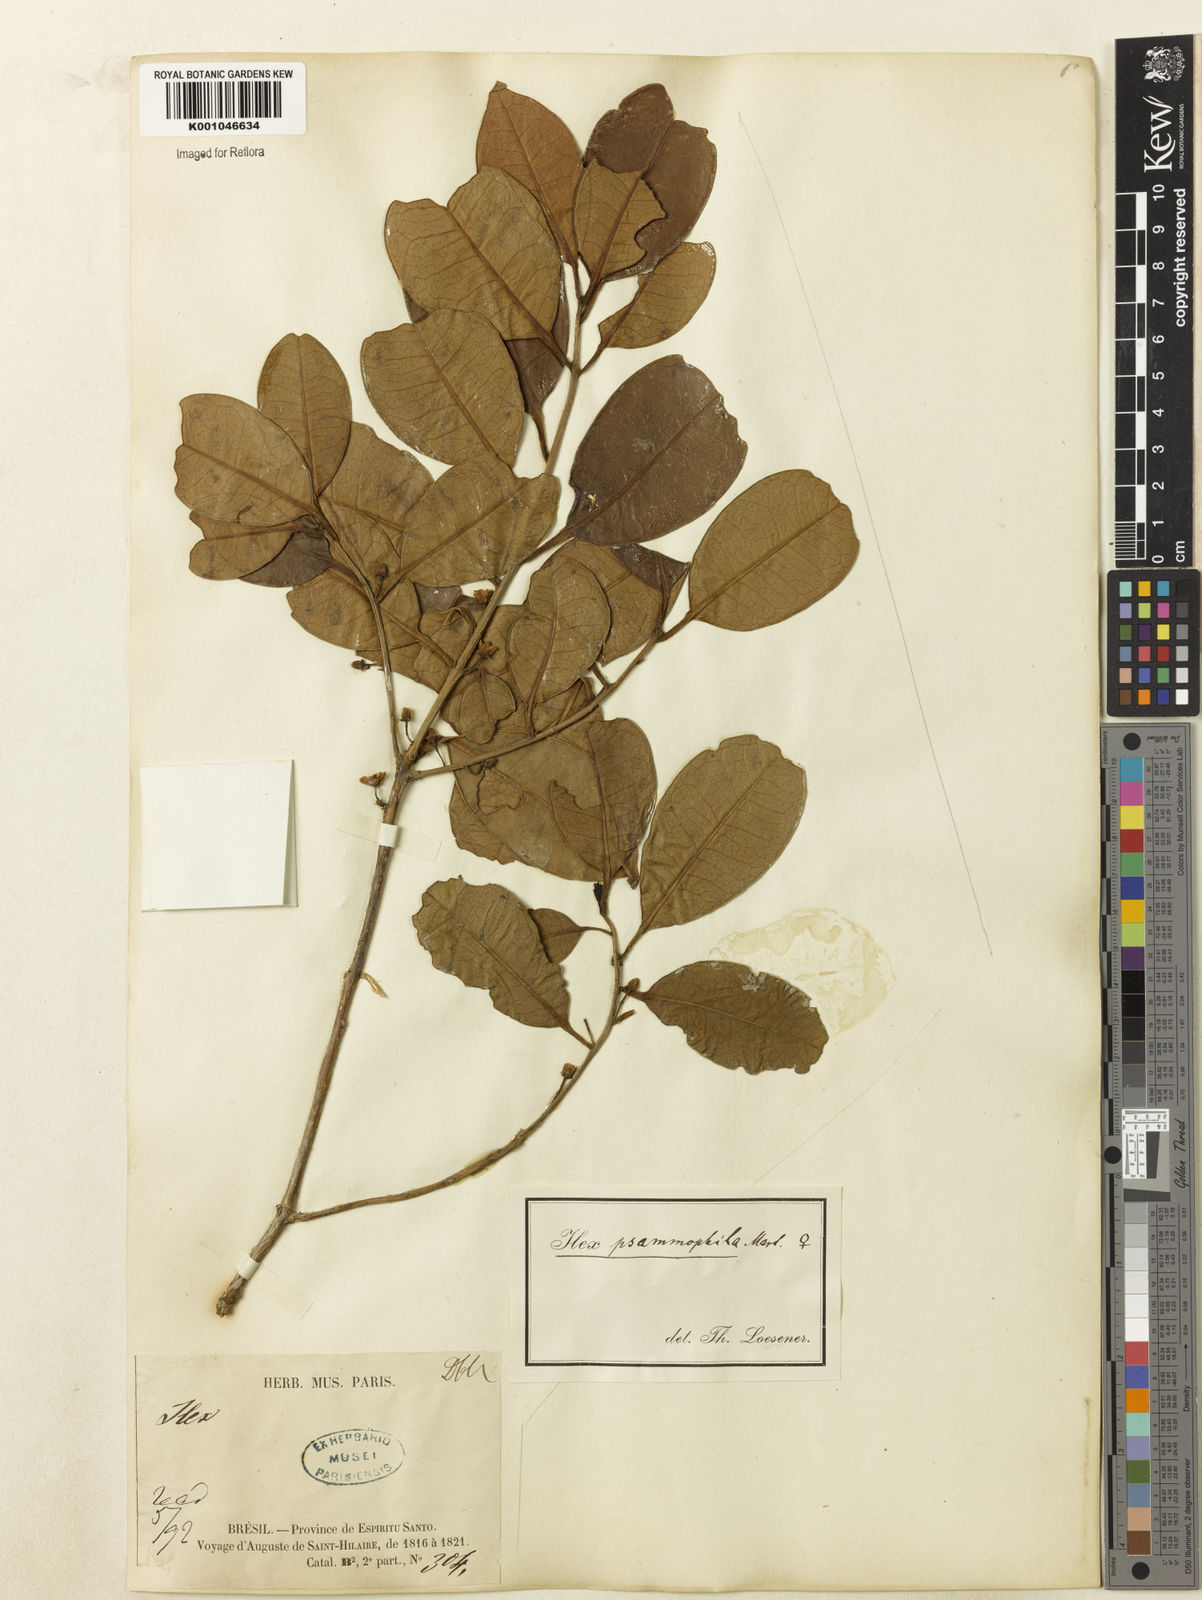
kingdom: Plantae
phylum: Tracheophyta
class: Magnoliopsida
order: Aquifoliales
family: Aquifoliaceae
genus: Ilex
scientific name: Ilex psammophila
